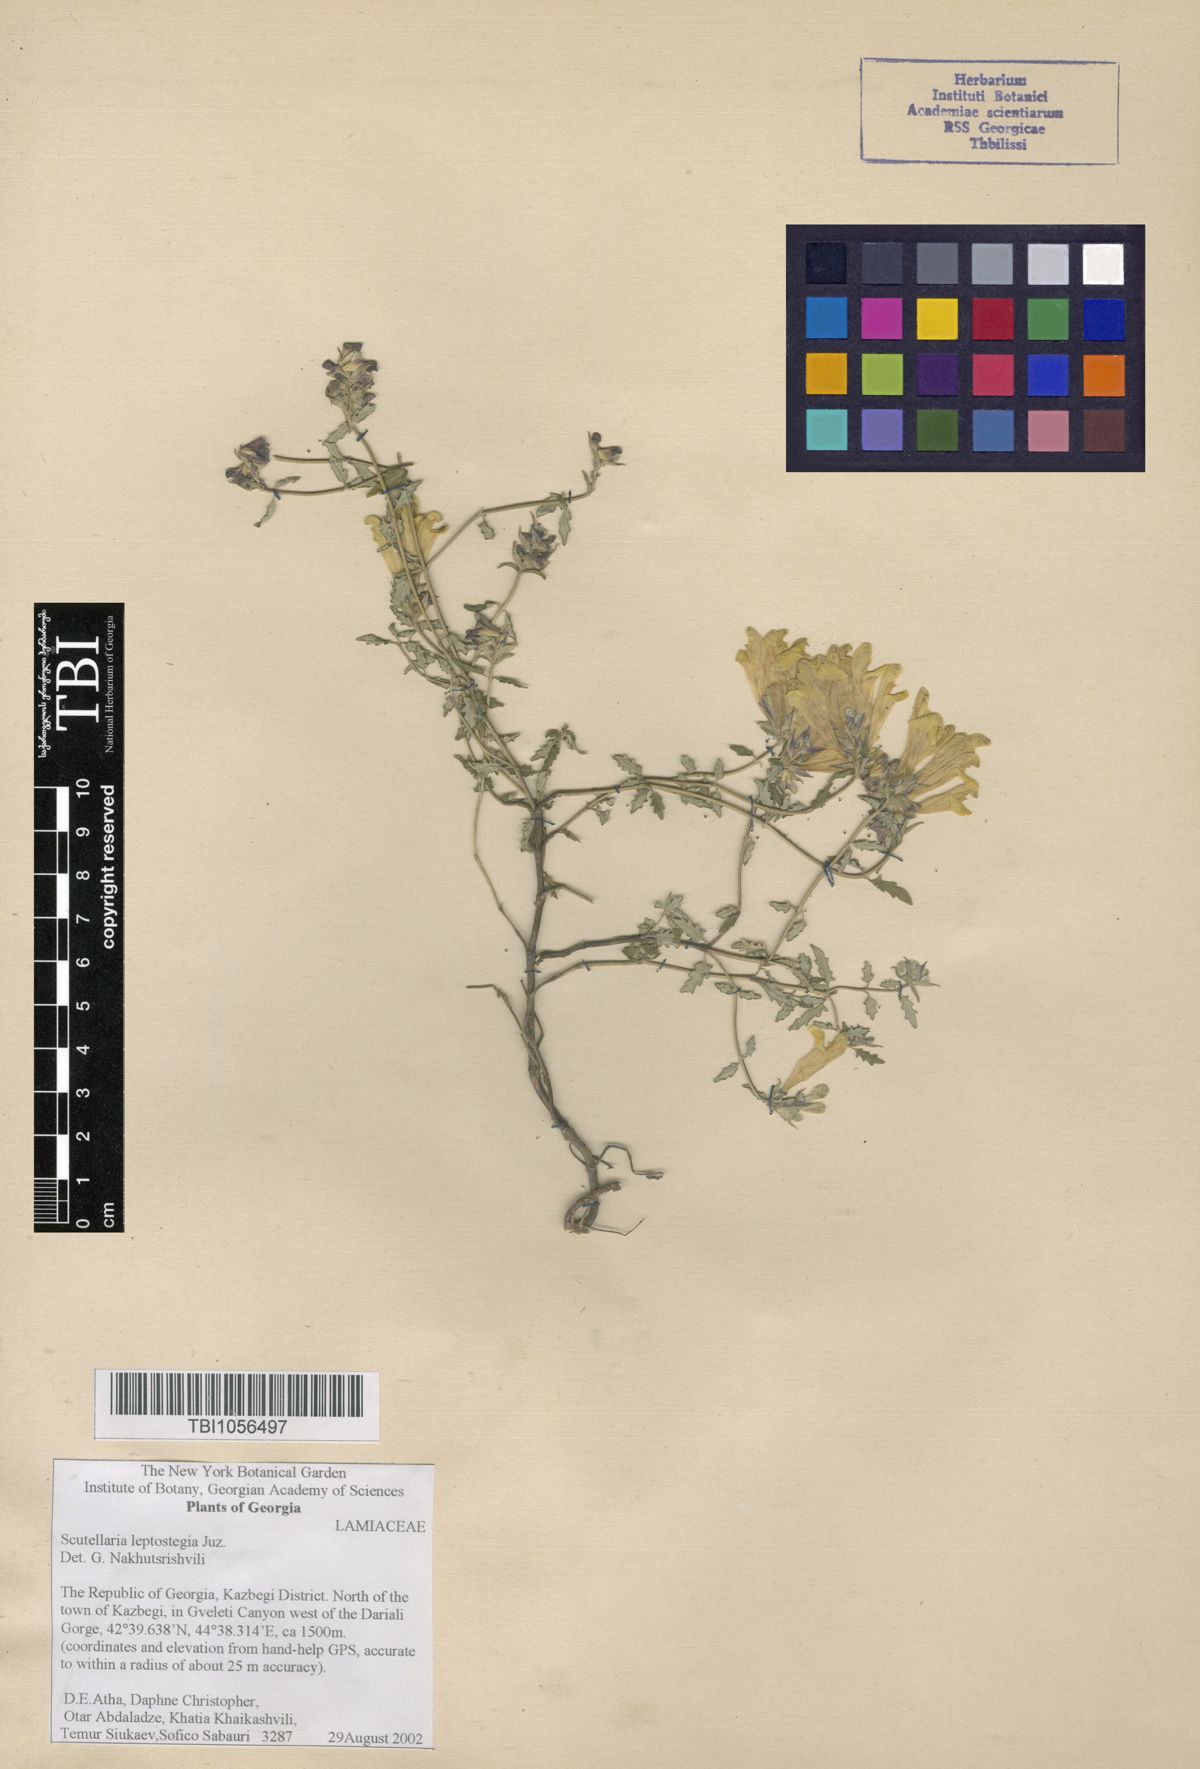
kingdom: Plantae
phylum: Tracheophyta
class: Magnoliopsida
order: Lamiales
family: Lamiaceae
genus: Scutellaria
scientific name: Scutellaria leptostegia
